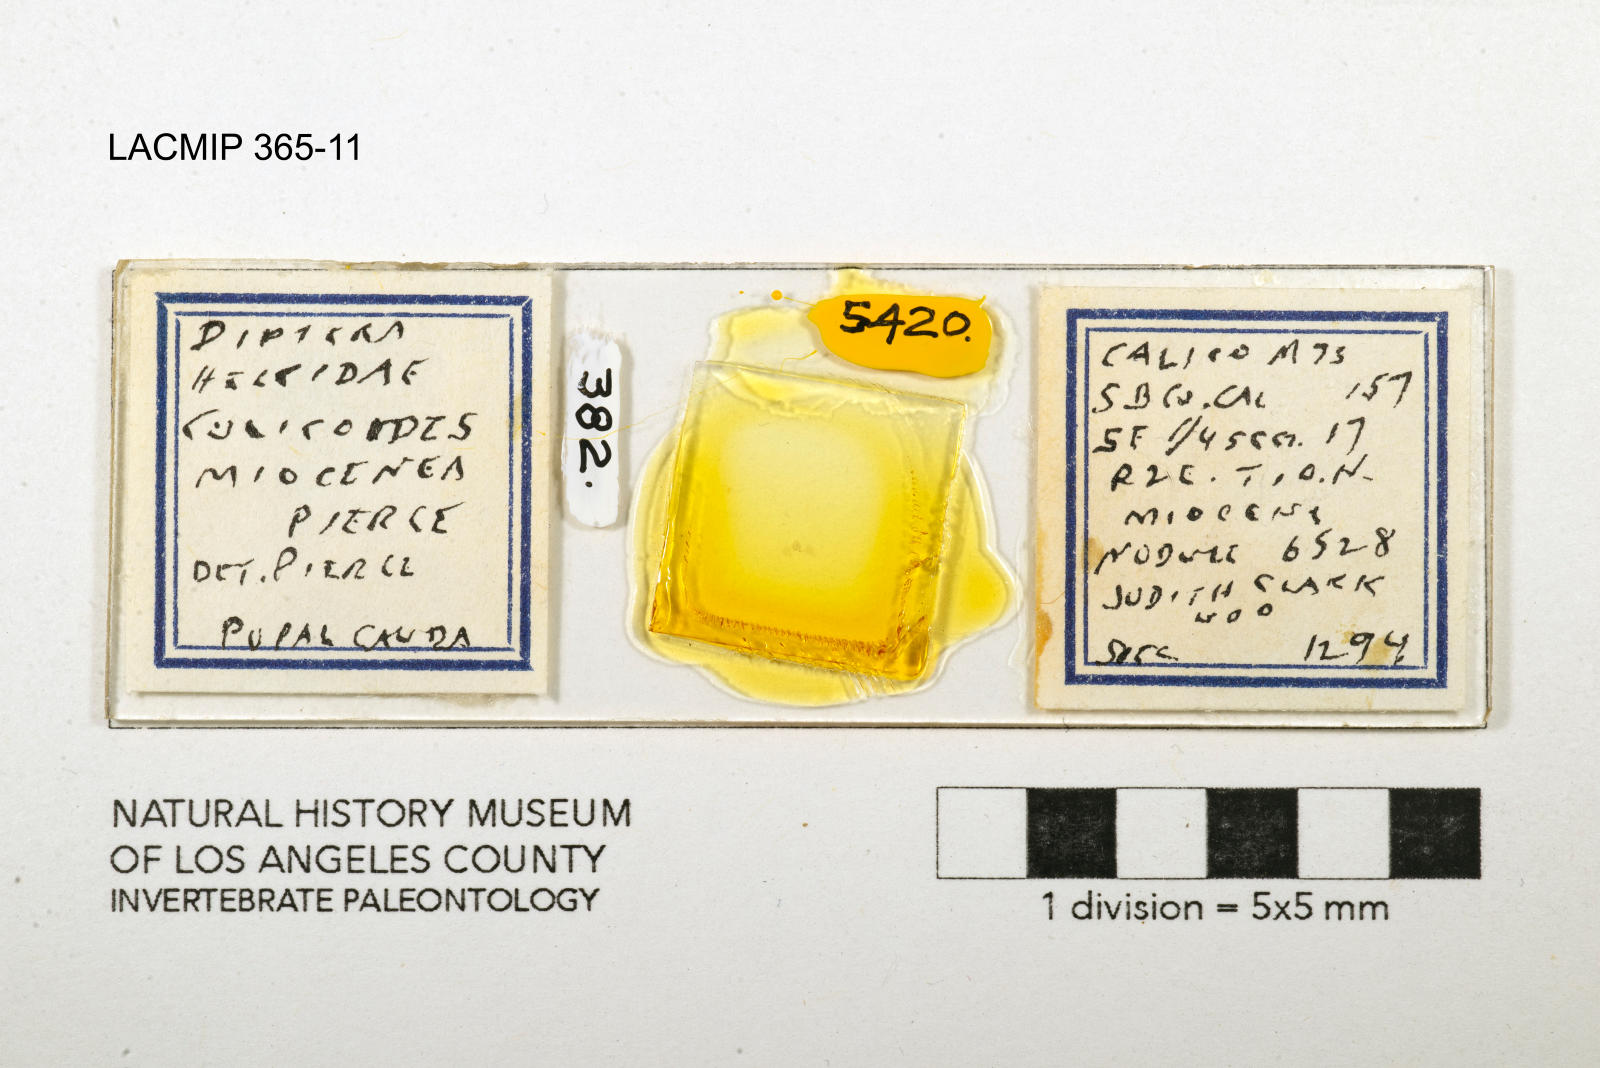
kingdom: Animalia
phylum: Arthropoda
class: Insecta
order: Diptera
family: Ceratopogonidae
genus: Culicoides
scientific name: Culicoides miocenicus
